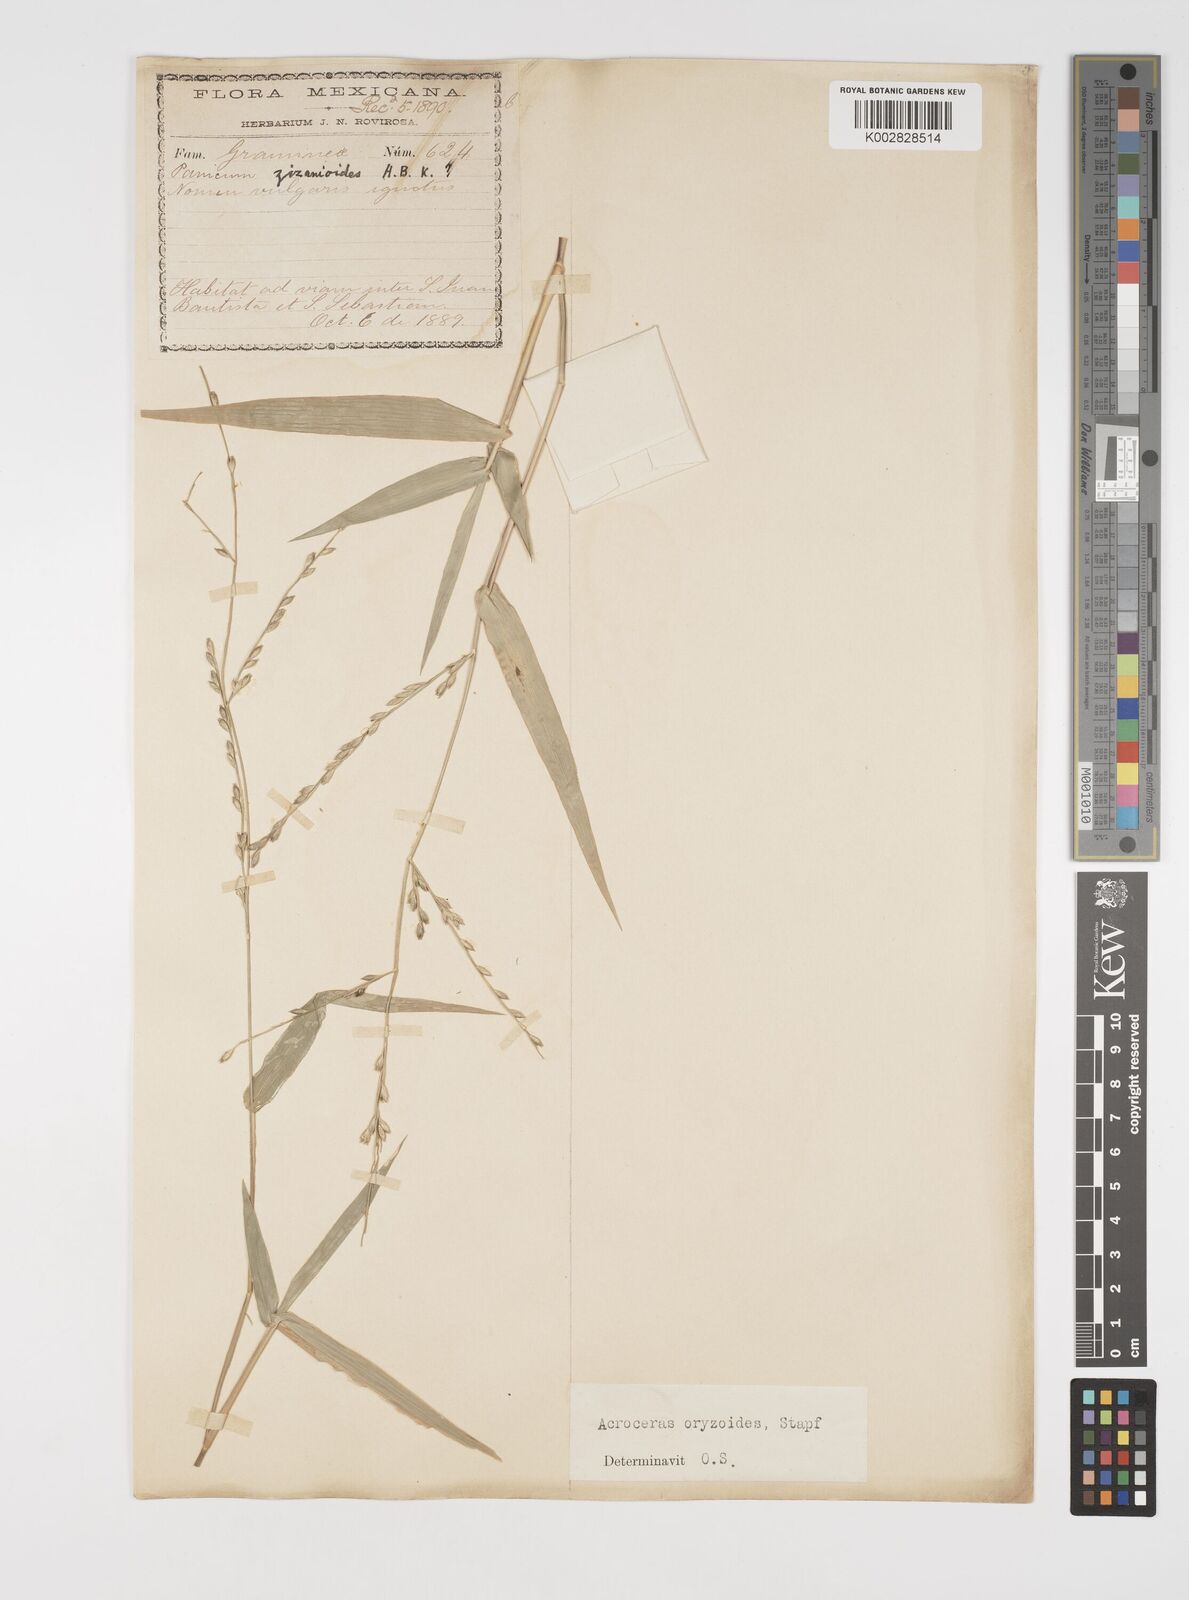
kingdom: Plantae
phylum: Tracheophyta
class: Liliopsida
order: Poales
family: Poaceae
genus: Acroceras
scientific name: Acroceras zizanioides
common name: Oat grass
